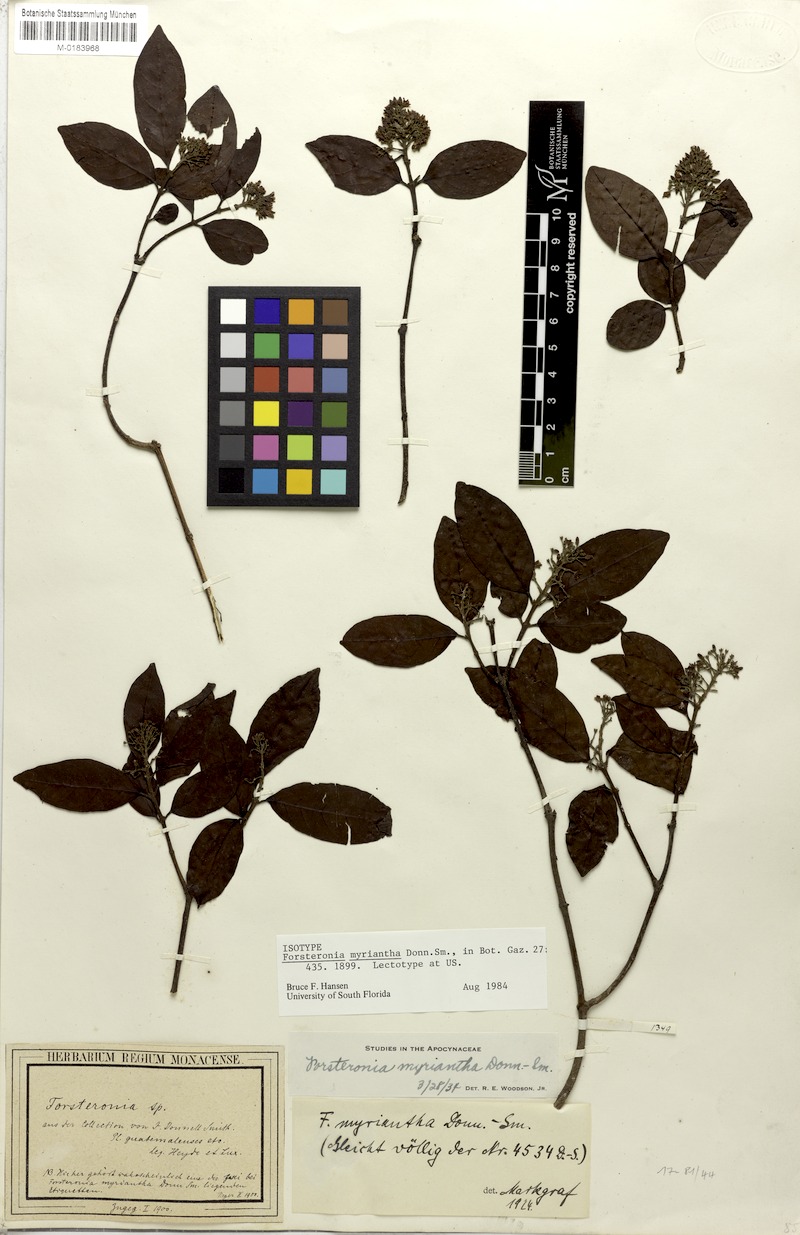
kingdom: Plantae
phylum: Tracheophyta
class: Magnoliopsida
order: Gentianales
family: Apocynaceae
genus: Forsteronia
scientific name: Forsteronia myriantha
